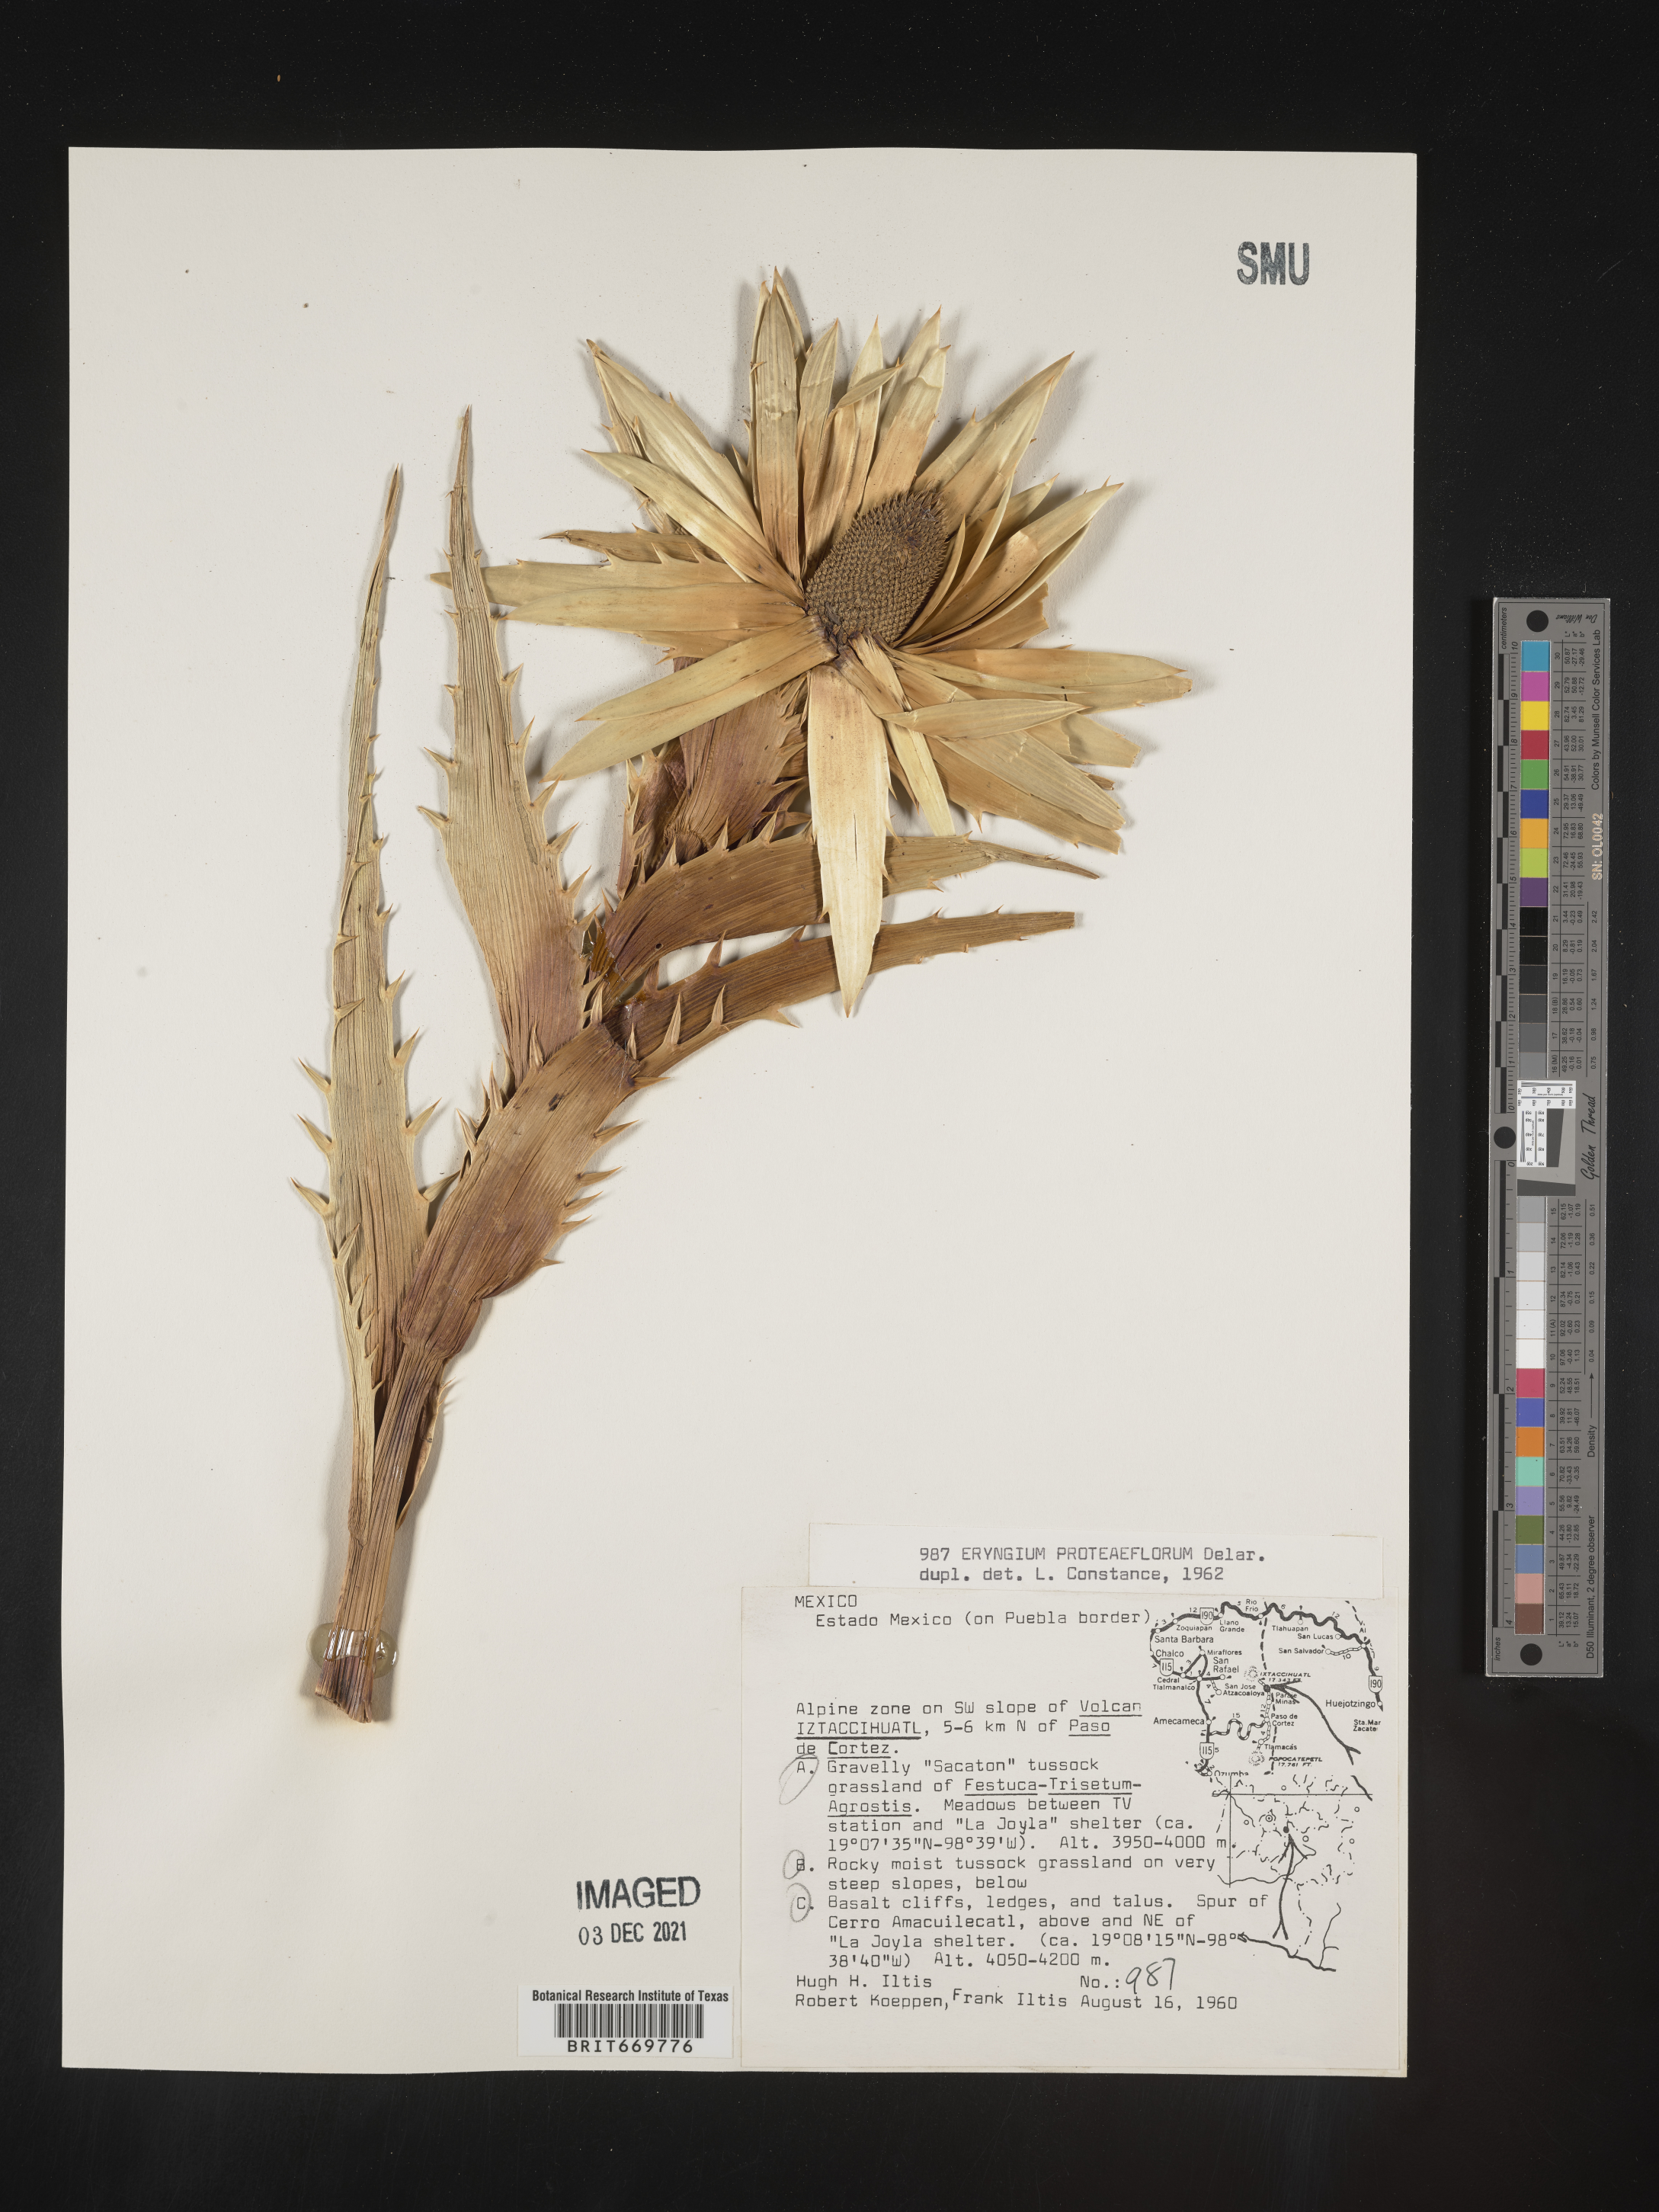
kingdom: Plantae
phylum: Tracheophyta
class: Magnoliopsida
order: Apiales
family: Apiaceae
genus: Eryngium
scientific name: Eryngium
